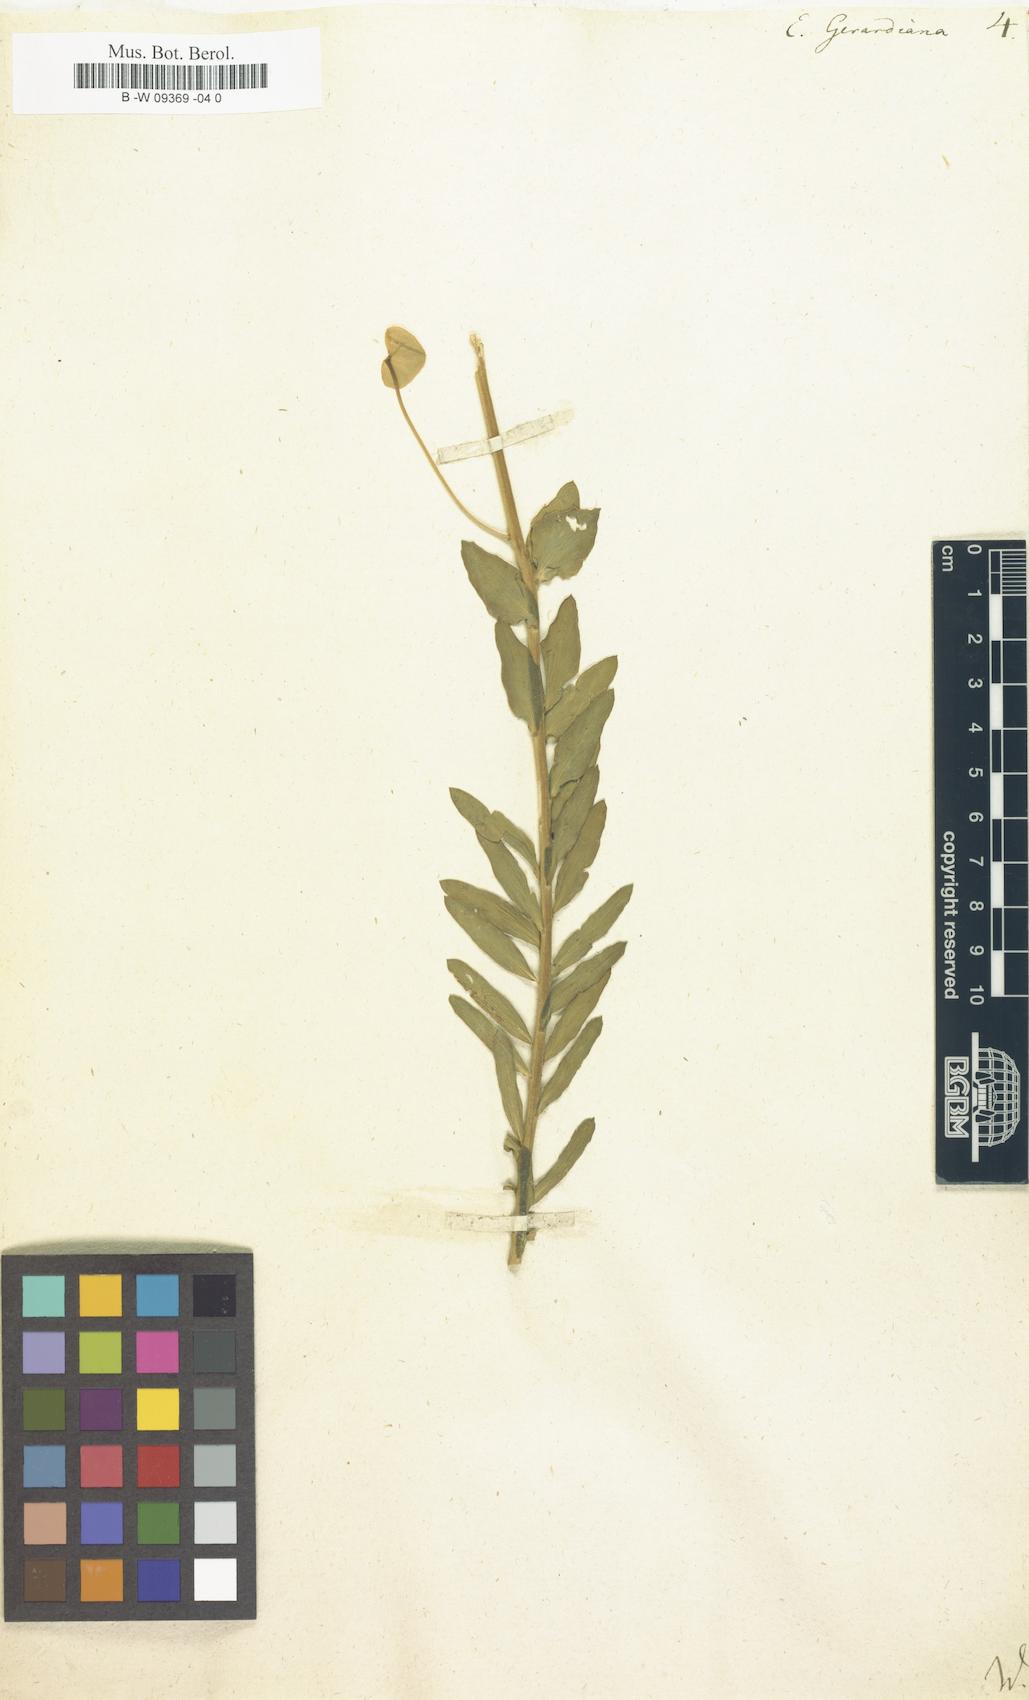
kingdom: Plantae
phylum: Tracheophyta
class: Magnoliopsida
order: Malpighiales
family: Euphorbiaceae
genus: Euphorbia
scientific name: Euphorbia seguieriana
